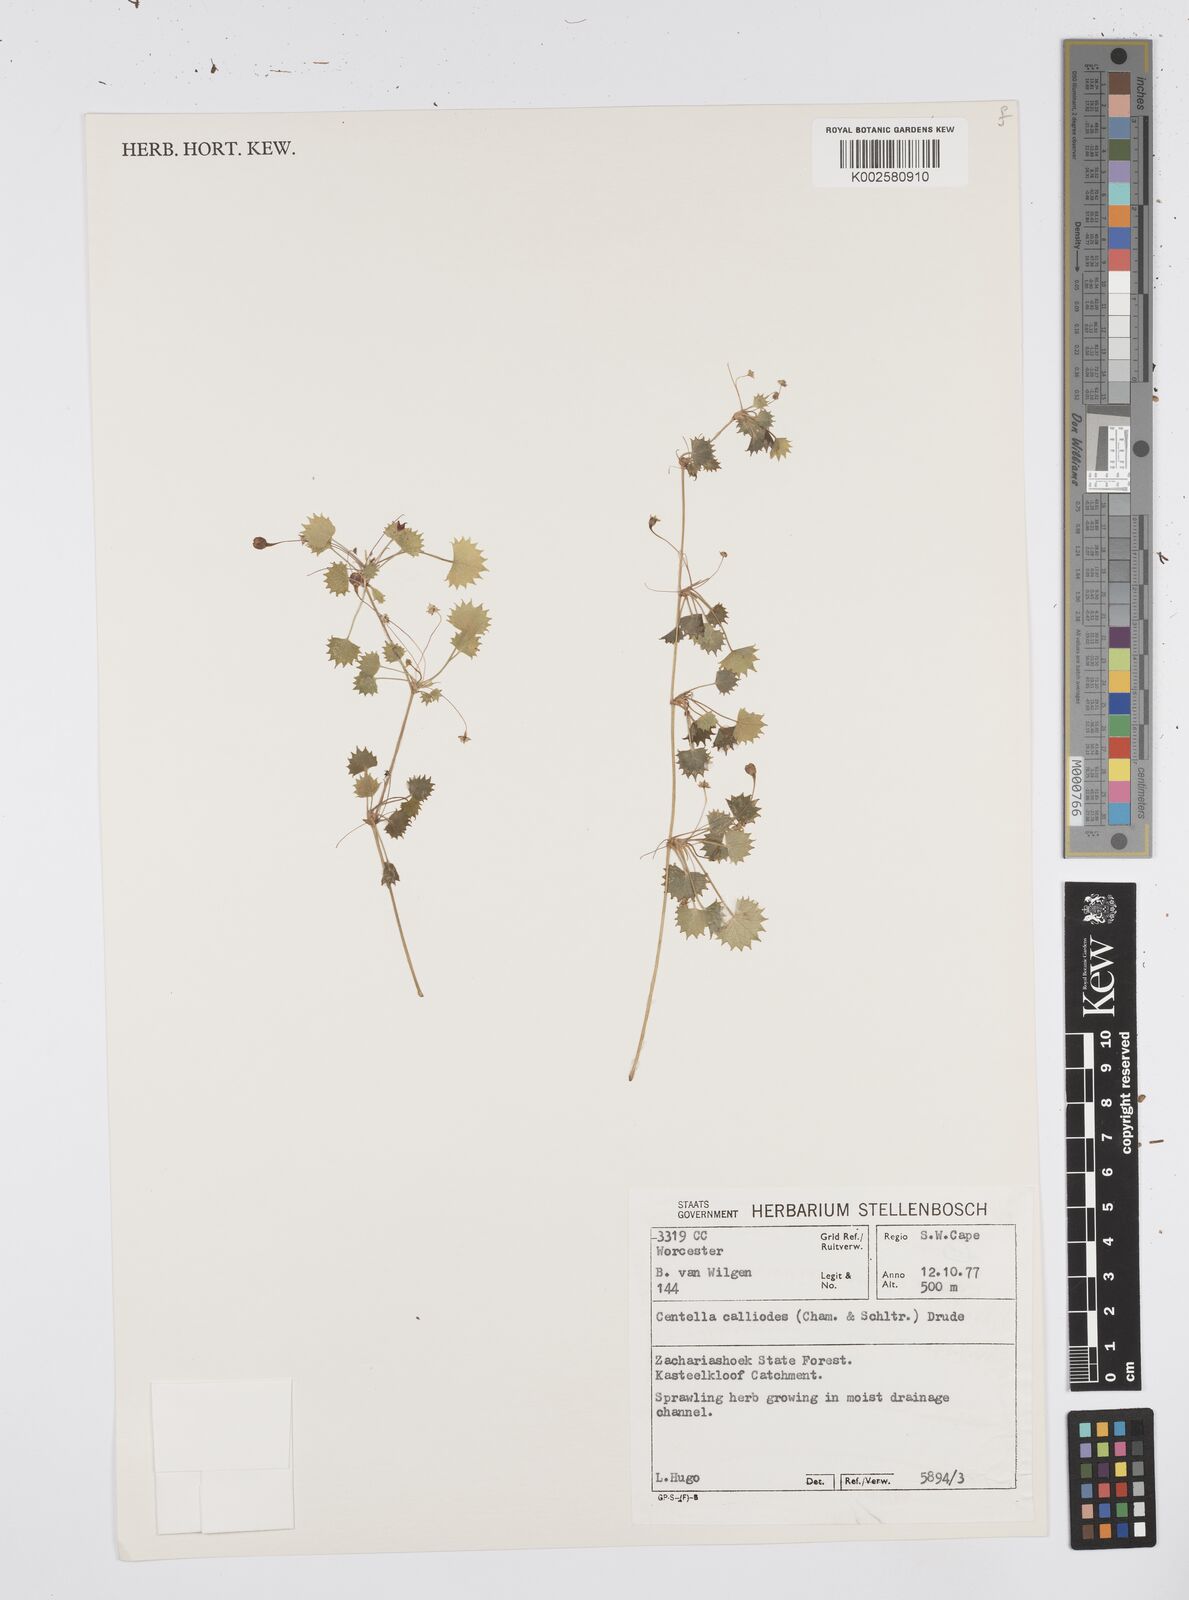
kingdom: Plantae
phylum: Tracheophyta
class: Magnoliopsida
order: Apiales
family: Apiaceae
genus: Centella
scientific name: Centella
